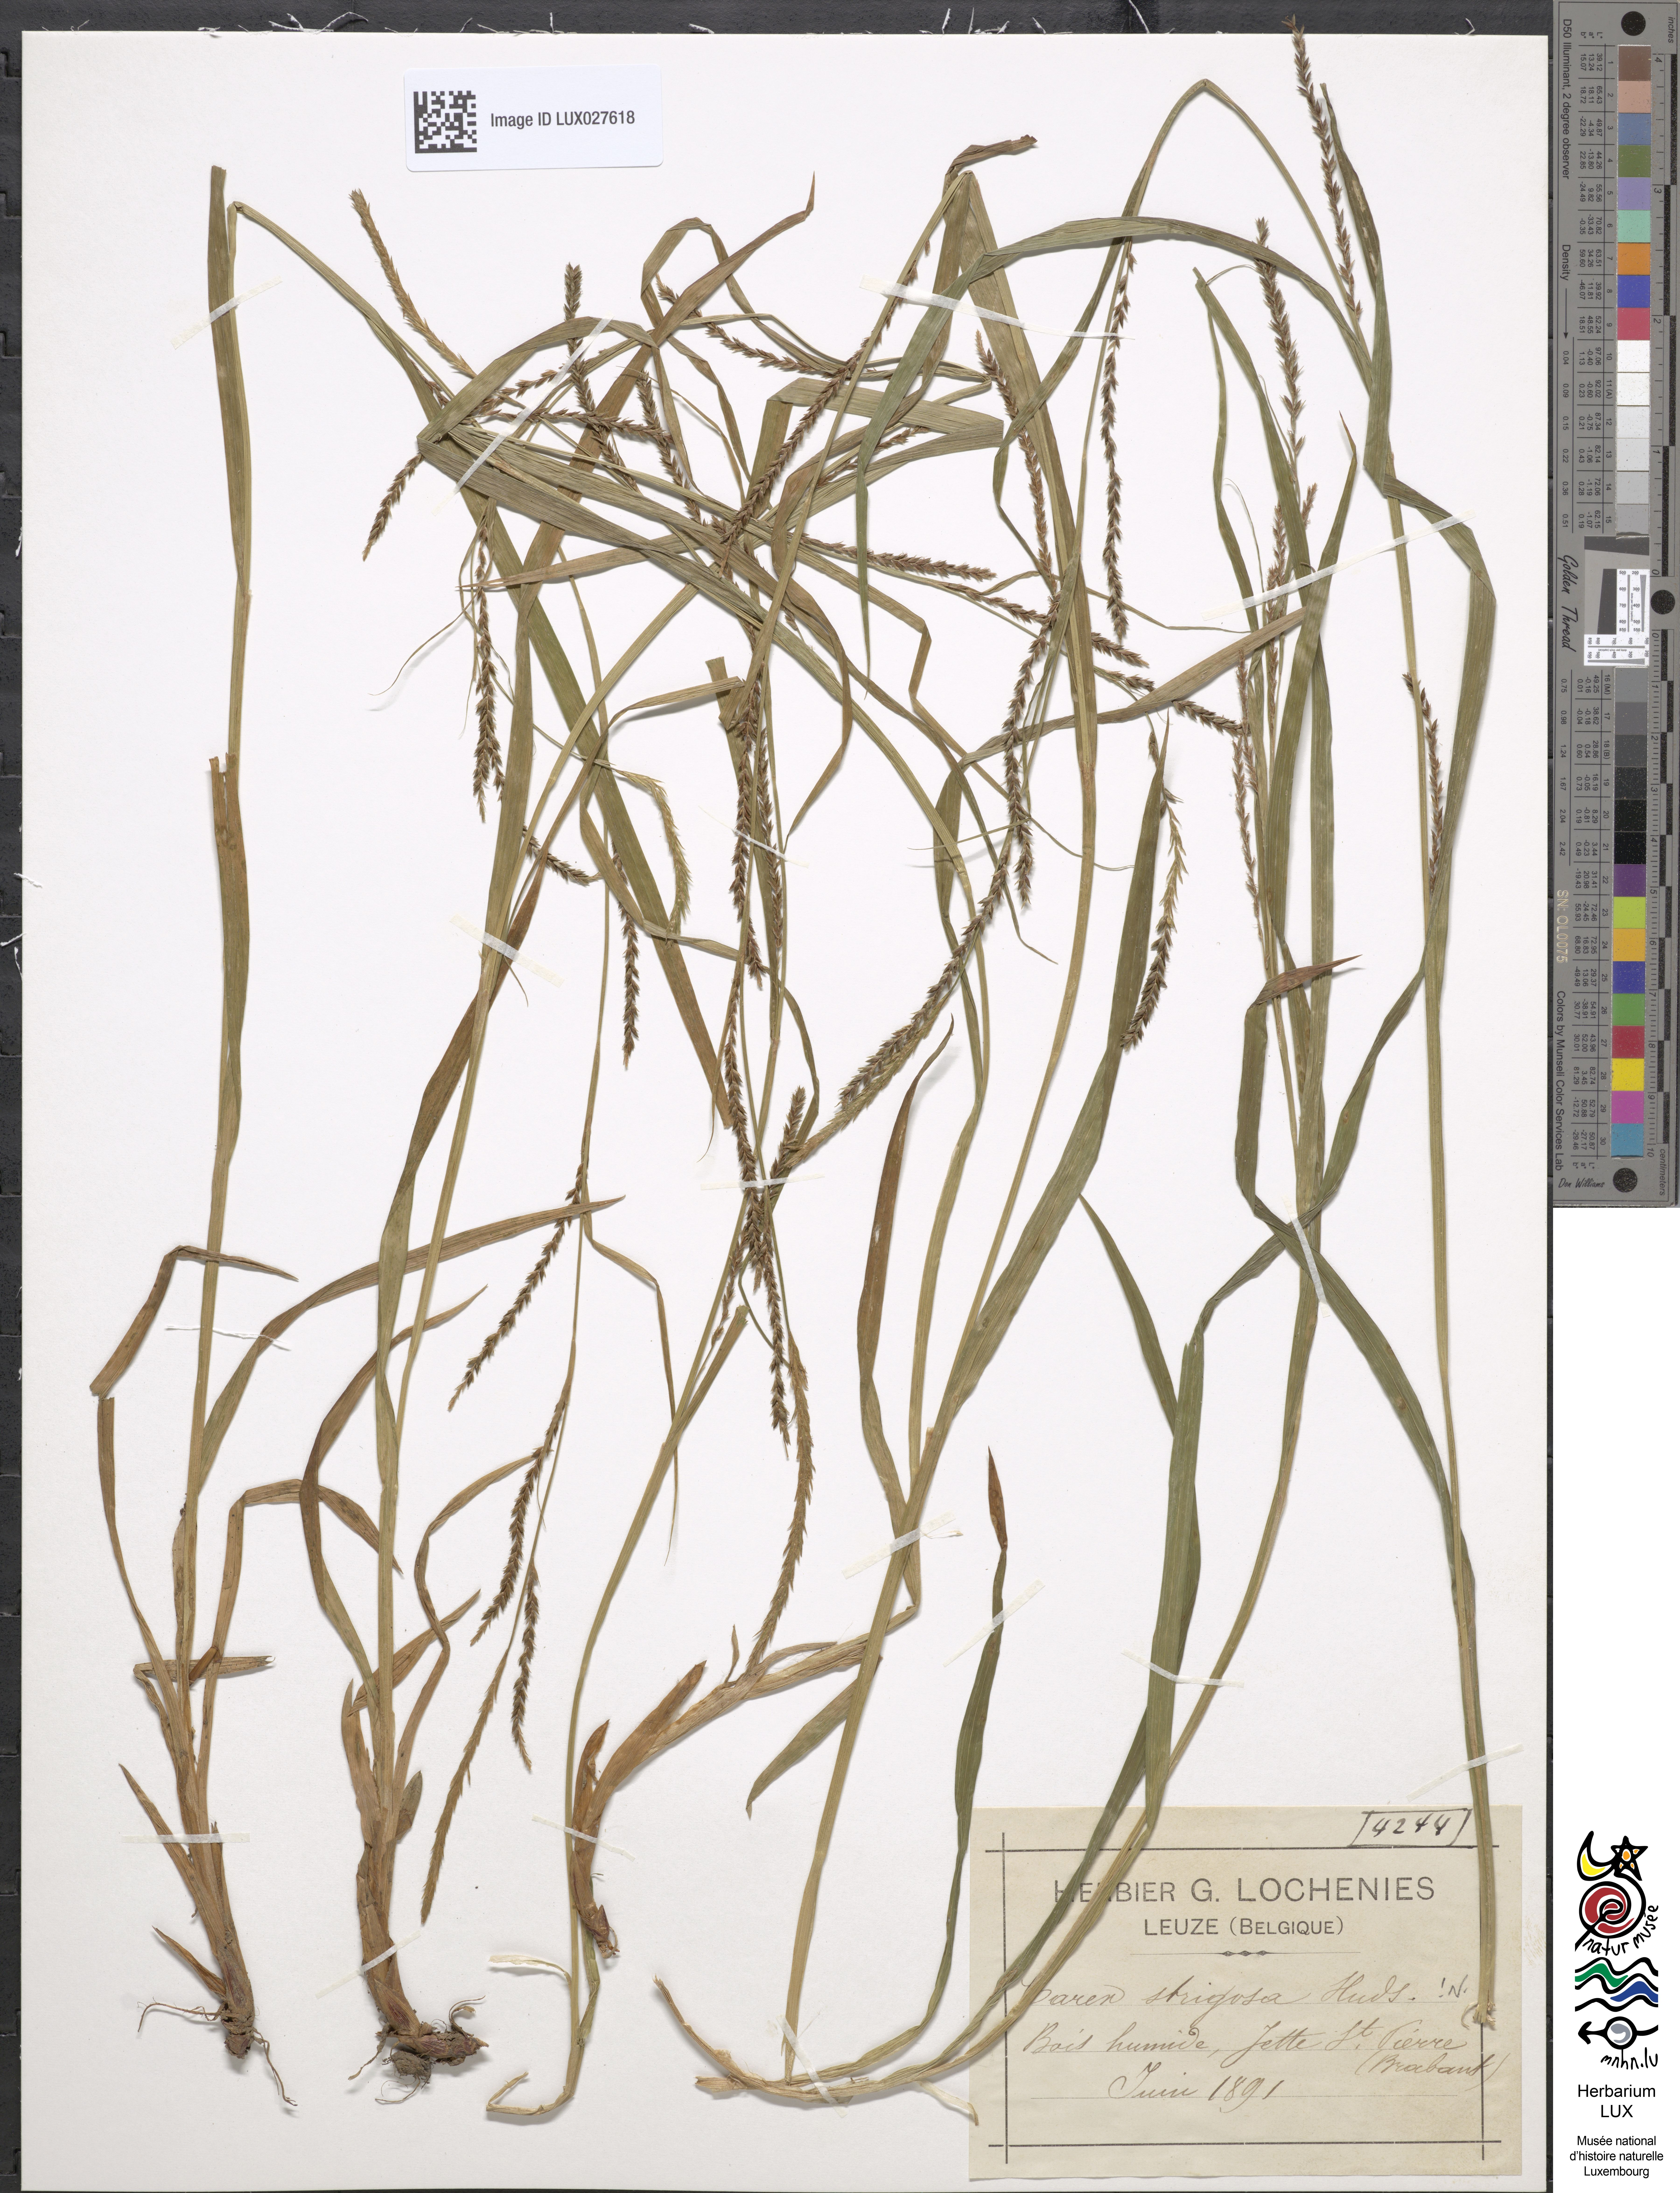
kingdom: Plantae
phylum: Tracheophyta
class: Liliopsida
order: Poales
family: Cyperaceae
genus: Carex
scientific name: Carex strigosa
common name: Thin-spiked wood-sedge
